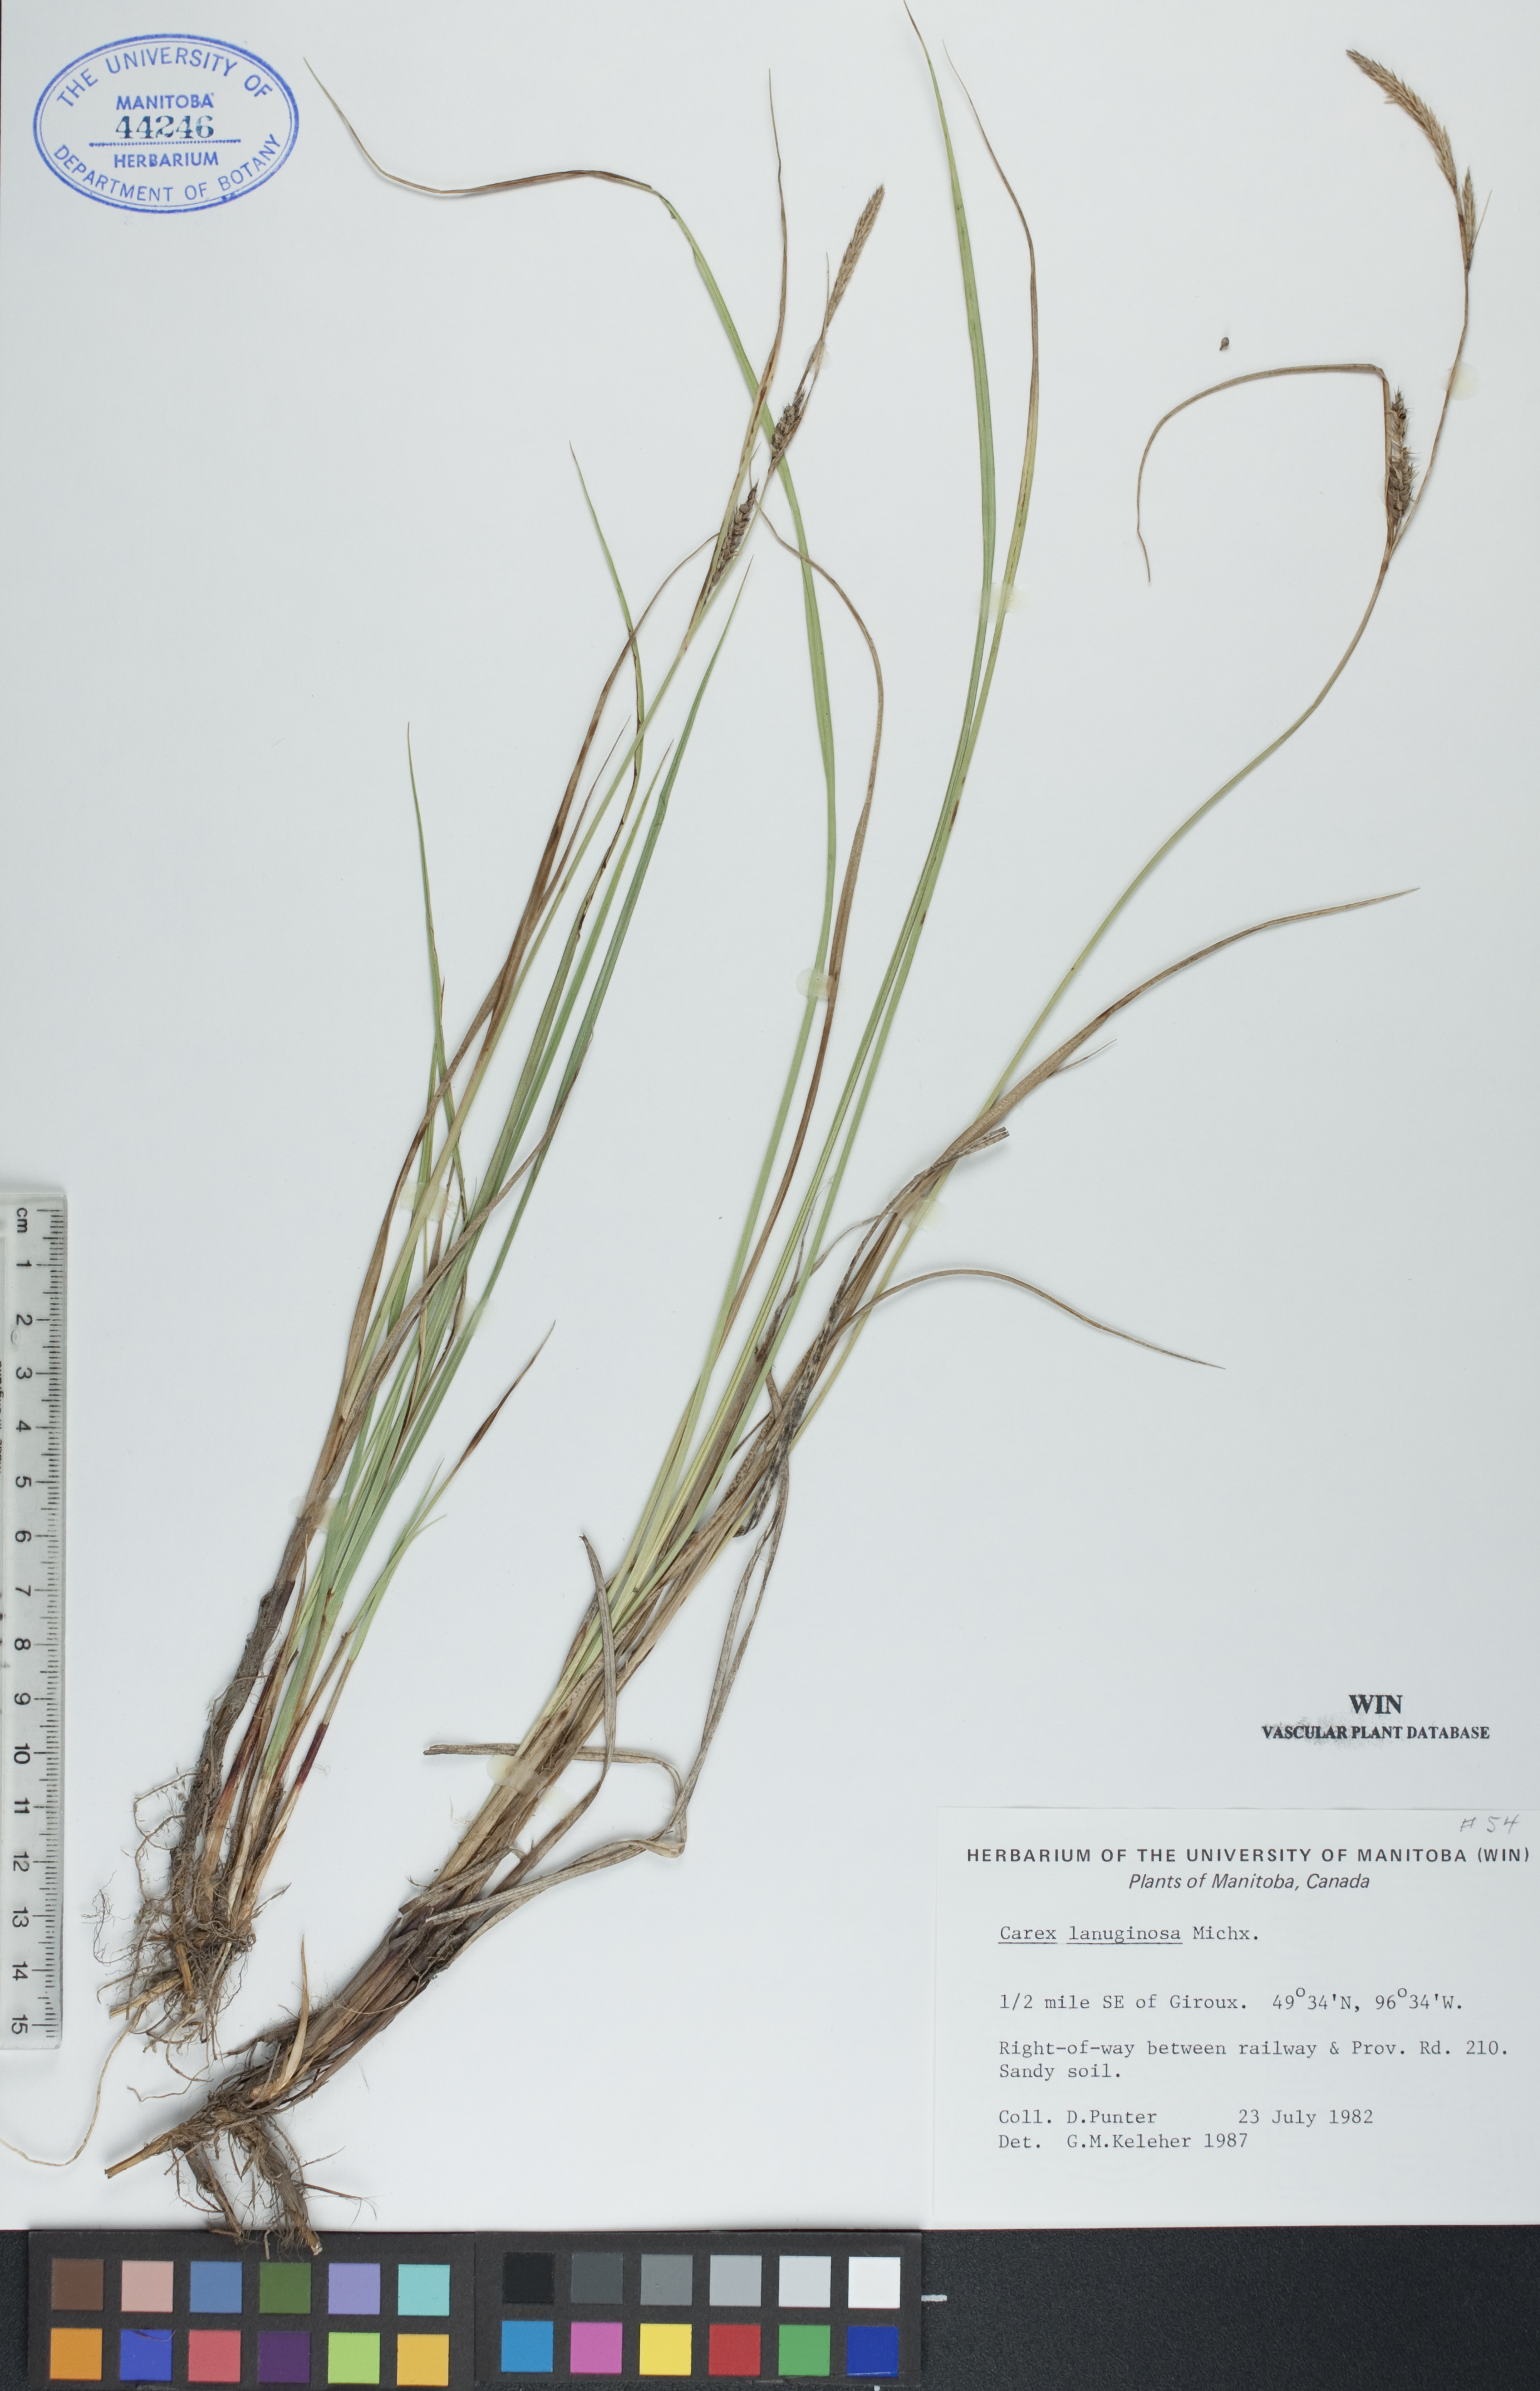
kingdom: Plantae
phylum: Tracheophyta
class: Liliopsida
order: Poales
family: Cyperaceae
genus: Carex
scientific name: Carex lasiocarpa
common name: Slender sedge
